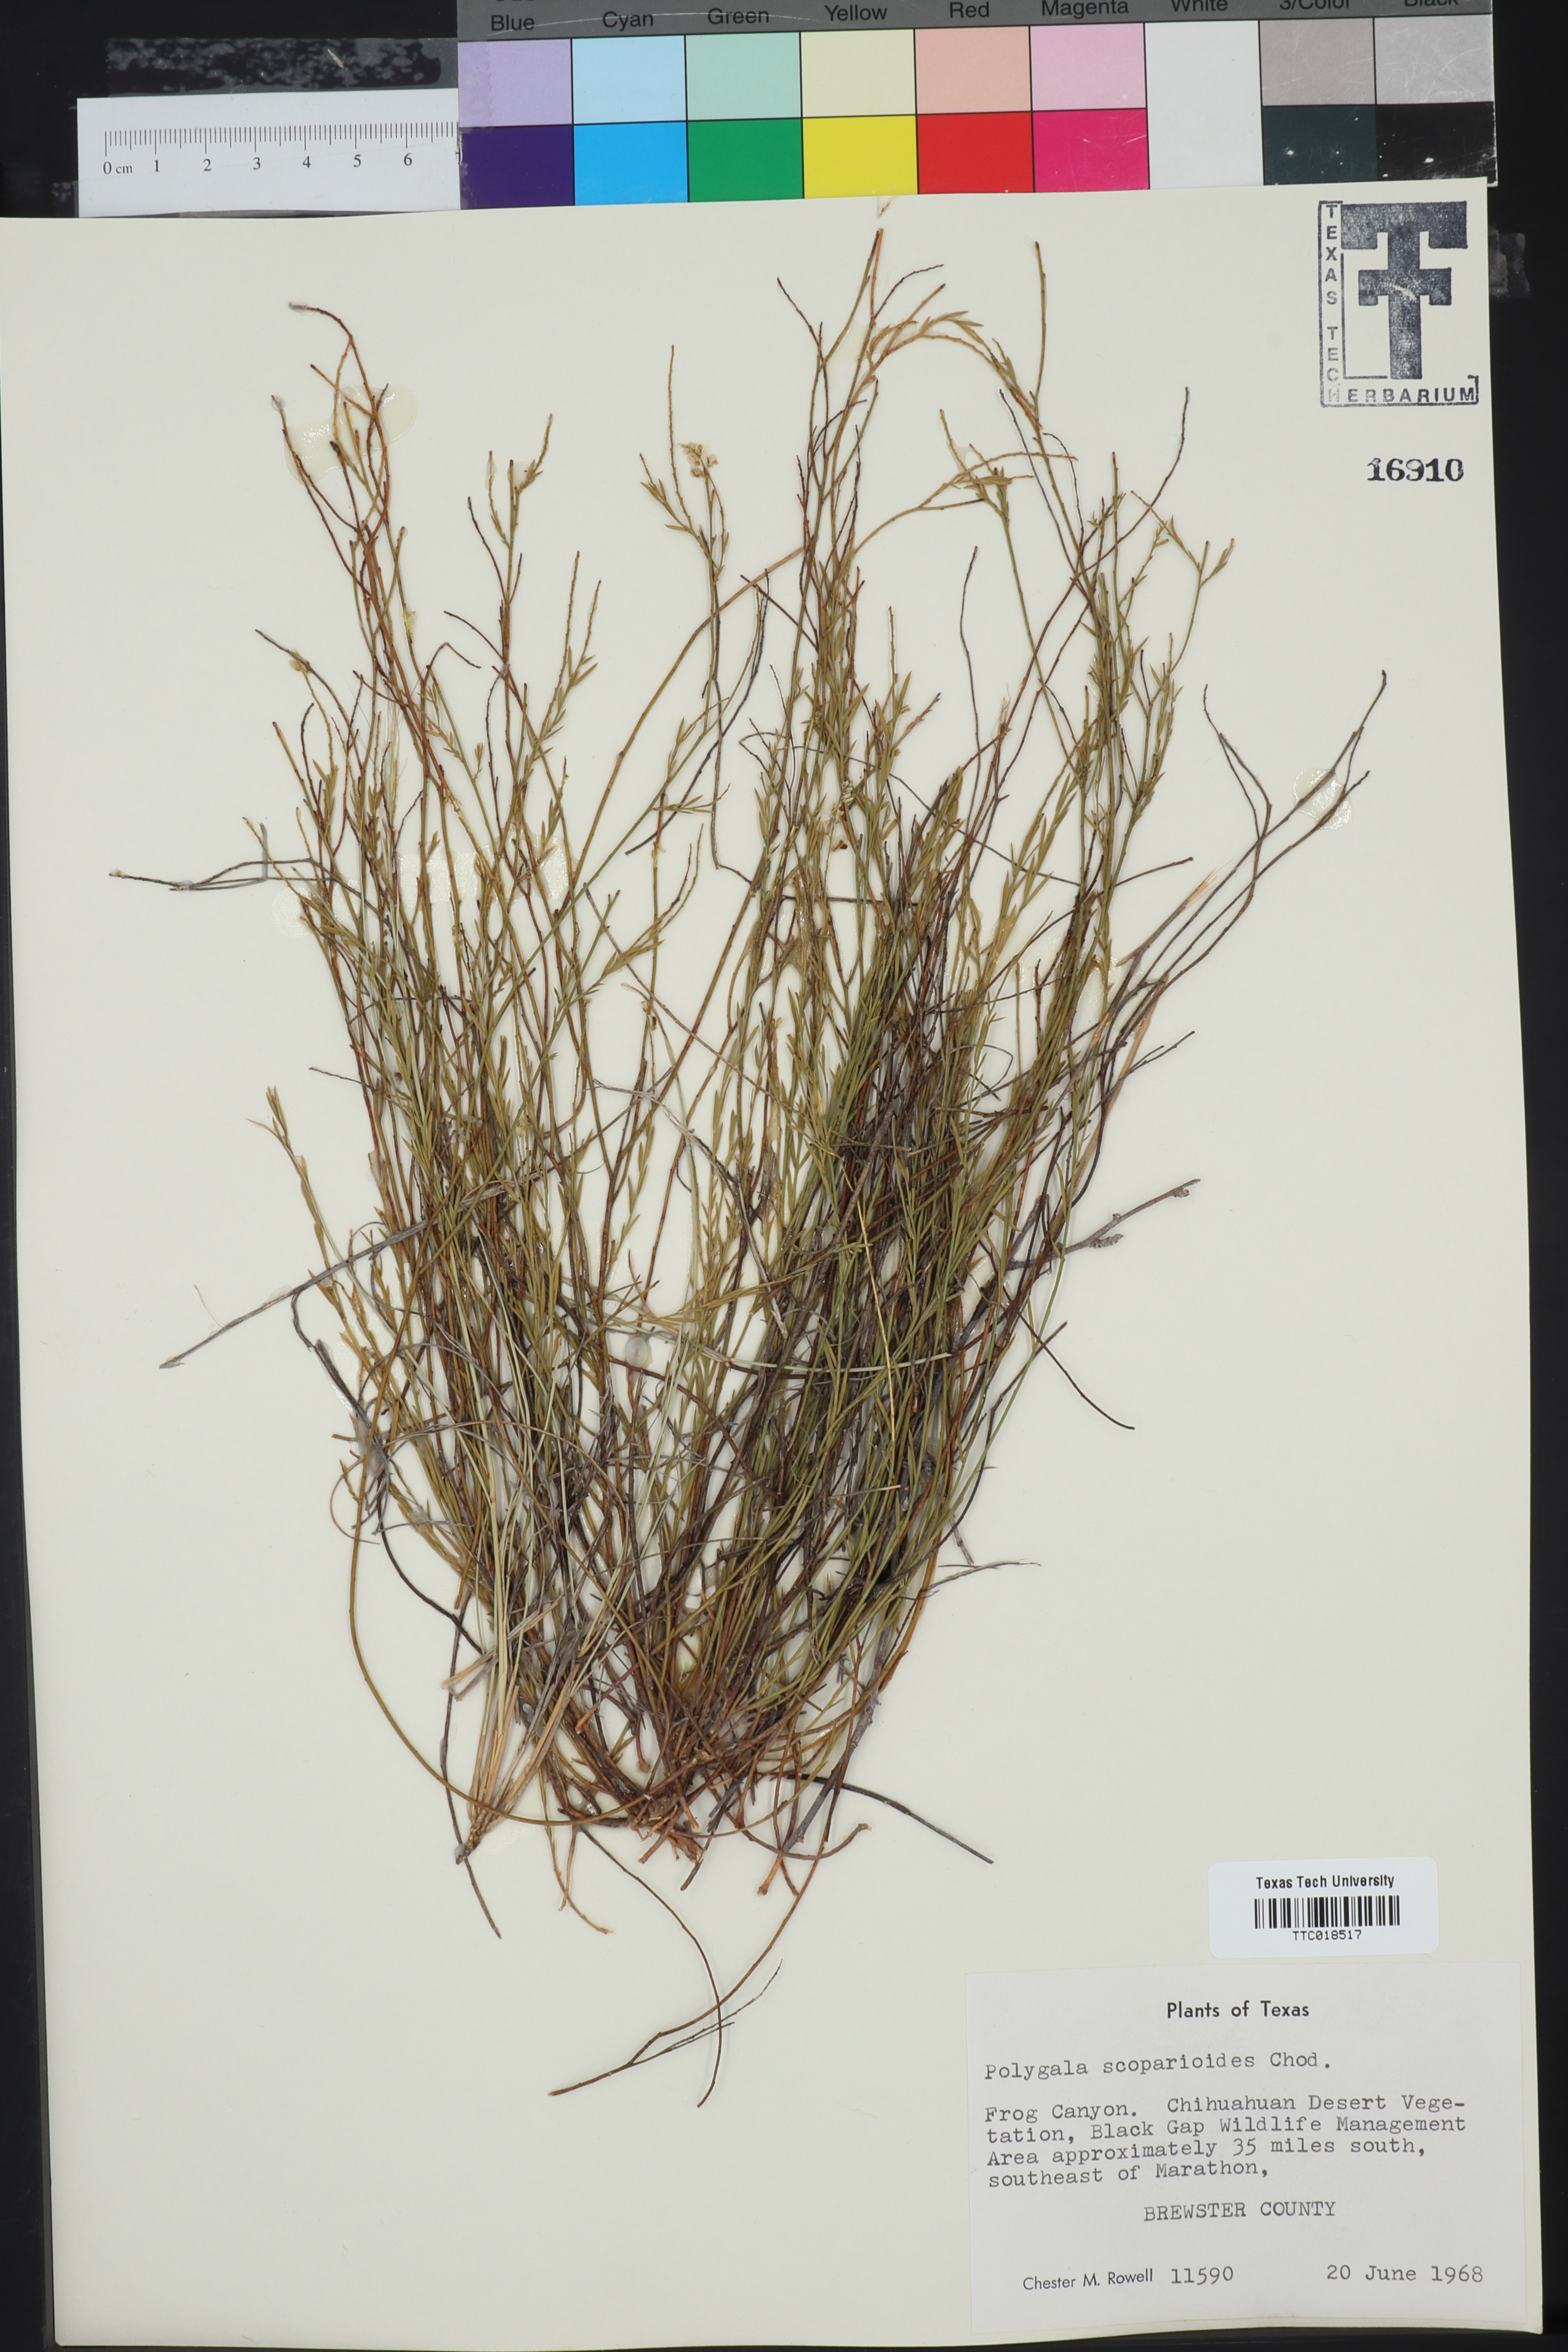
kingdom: Plantae
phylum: Tracheophyta
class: Magnoliopsida
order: Fabales
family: Polygalaceae
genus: Polygala
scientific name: Polygala scoparioides
